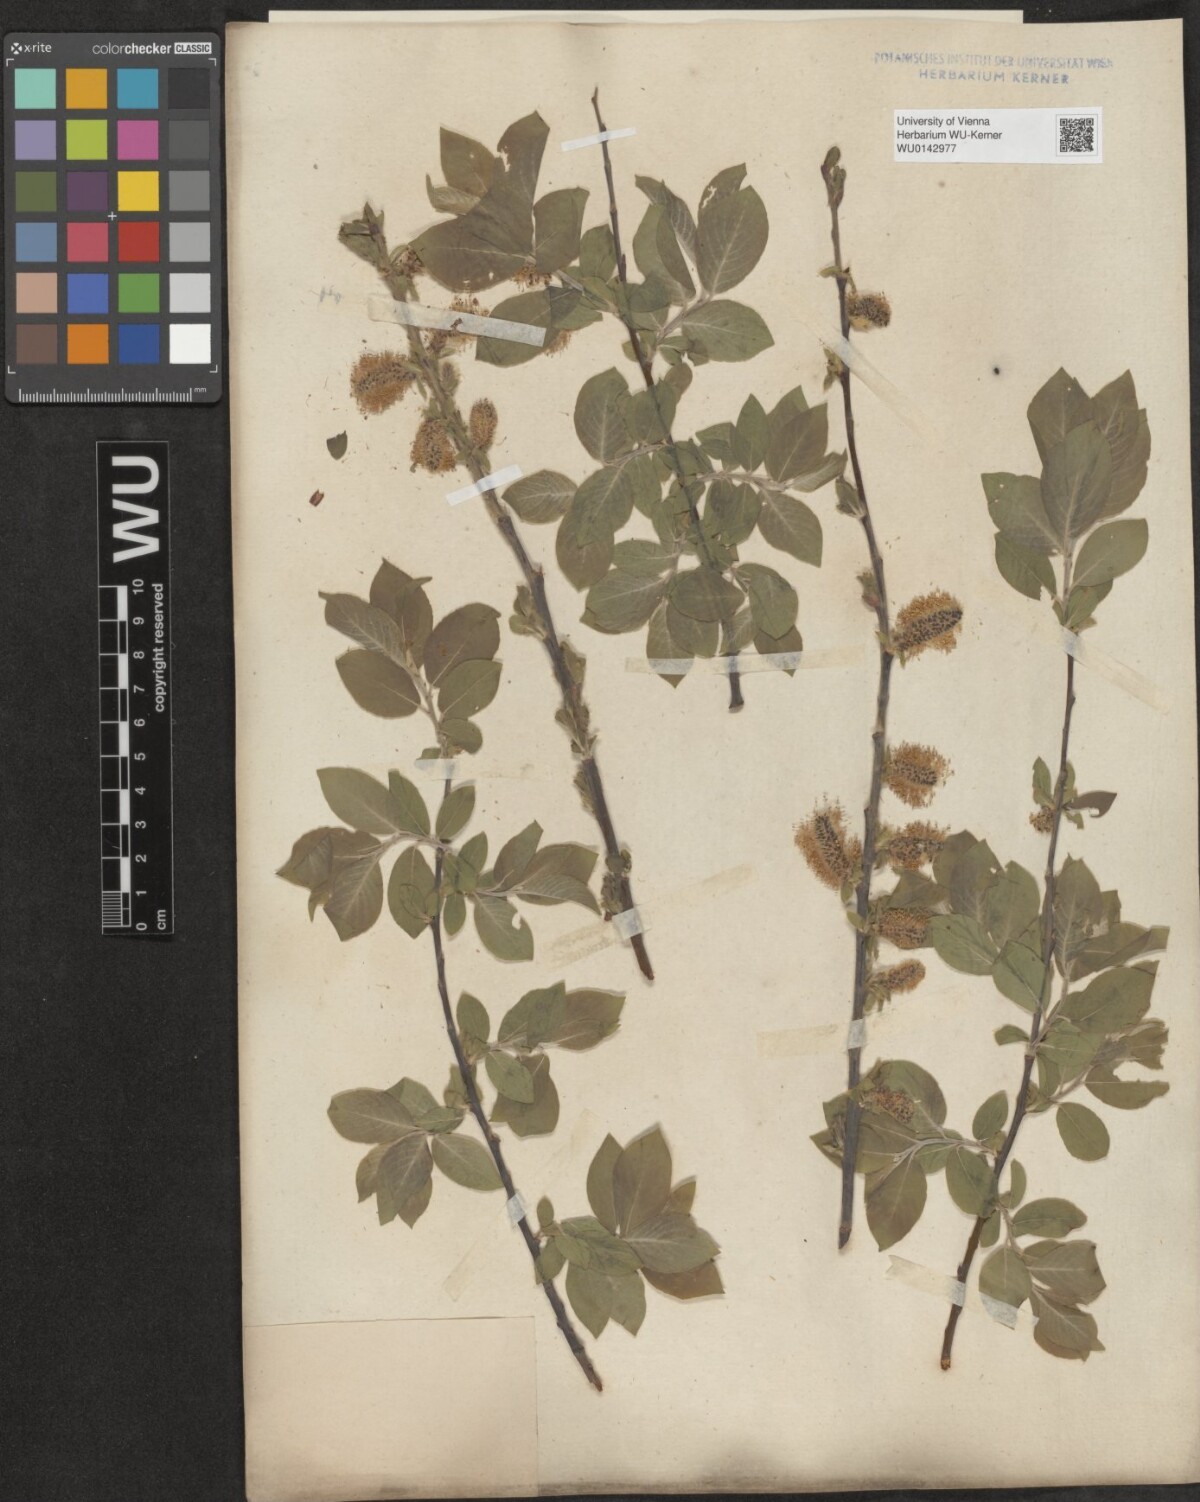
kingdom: Plantae
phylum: Tracheophyta
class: Magnoliopsida
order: Malpighiales
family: Salicaceae
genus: Salix
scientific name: Salix myrsinifolia
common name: Dark-leaved willow
